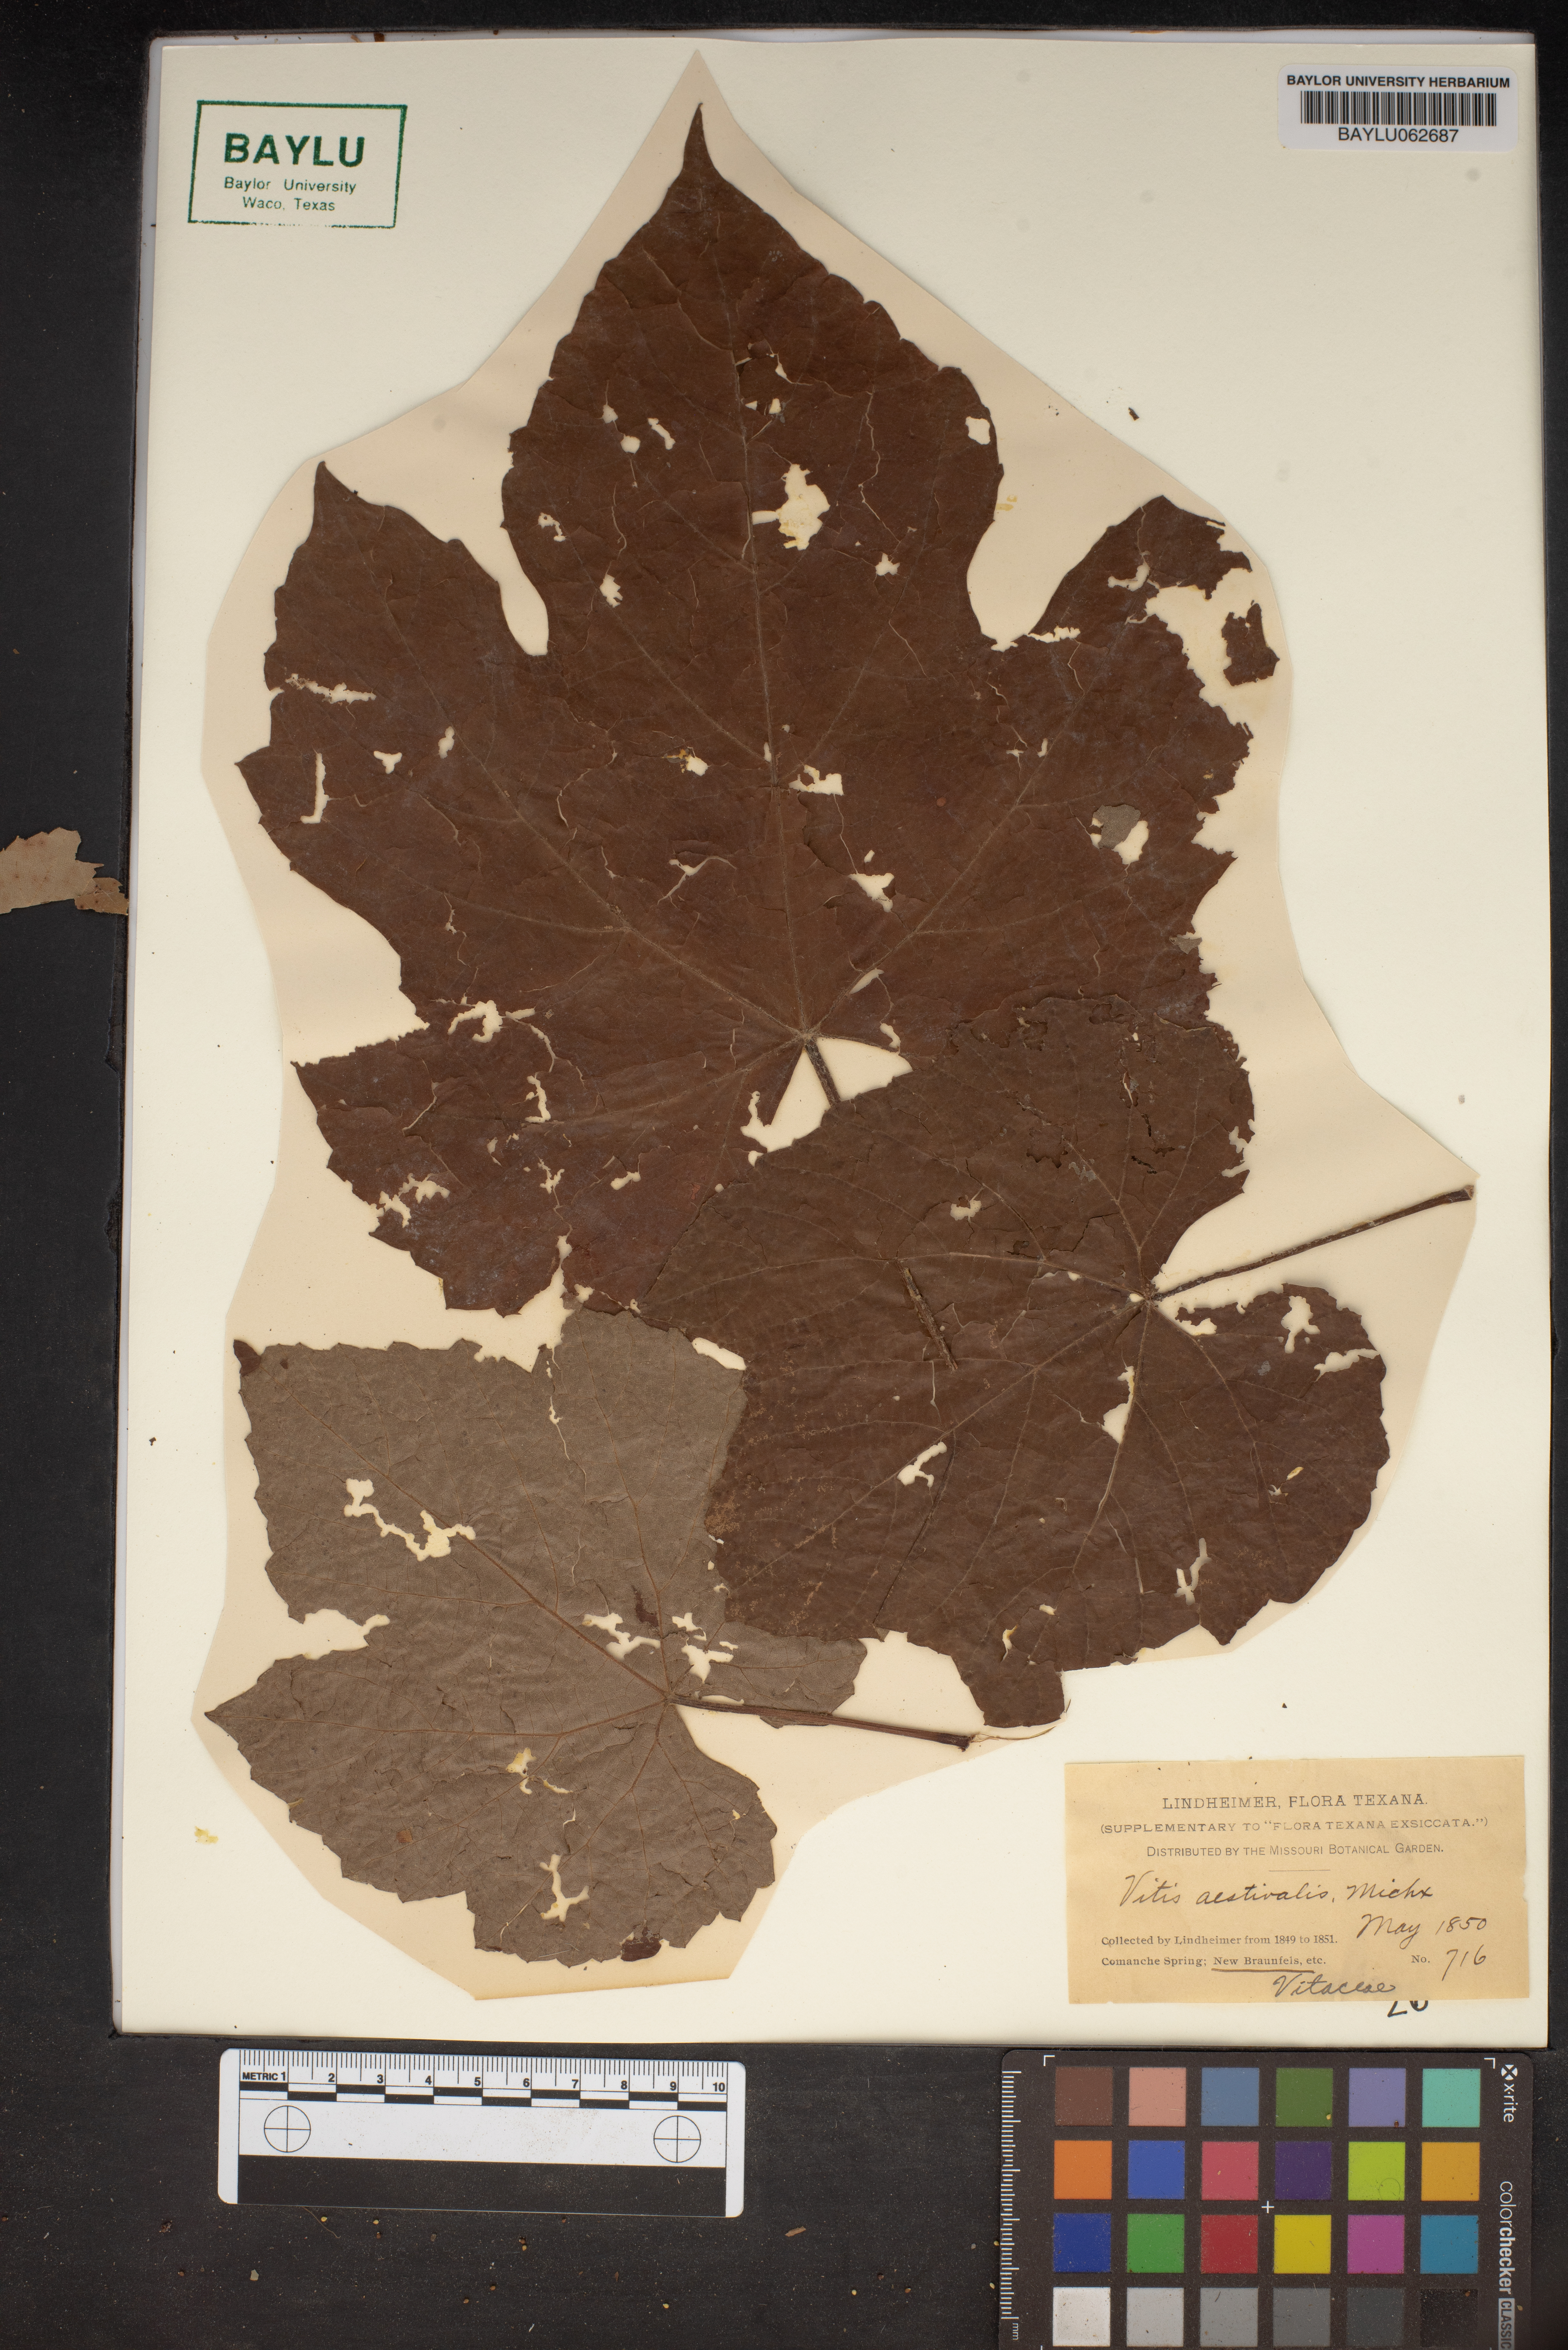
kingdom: Plantae
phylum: Tracheophyta
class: Magnoliopsida
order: Vitales
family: Vitaceae
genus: Vitis
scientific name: Vitis aestivalis
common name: Pigeon grape
